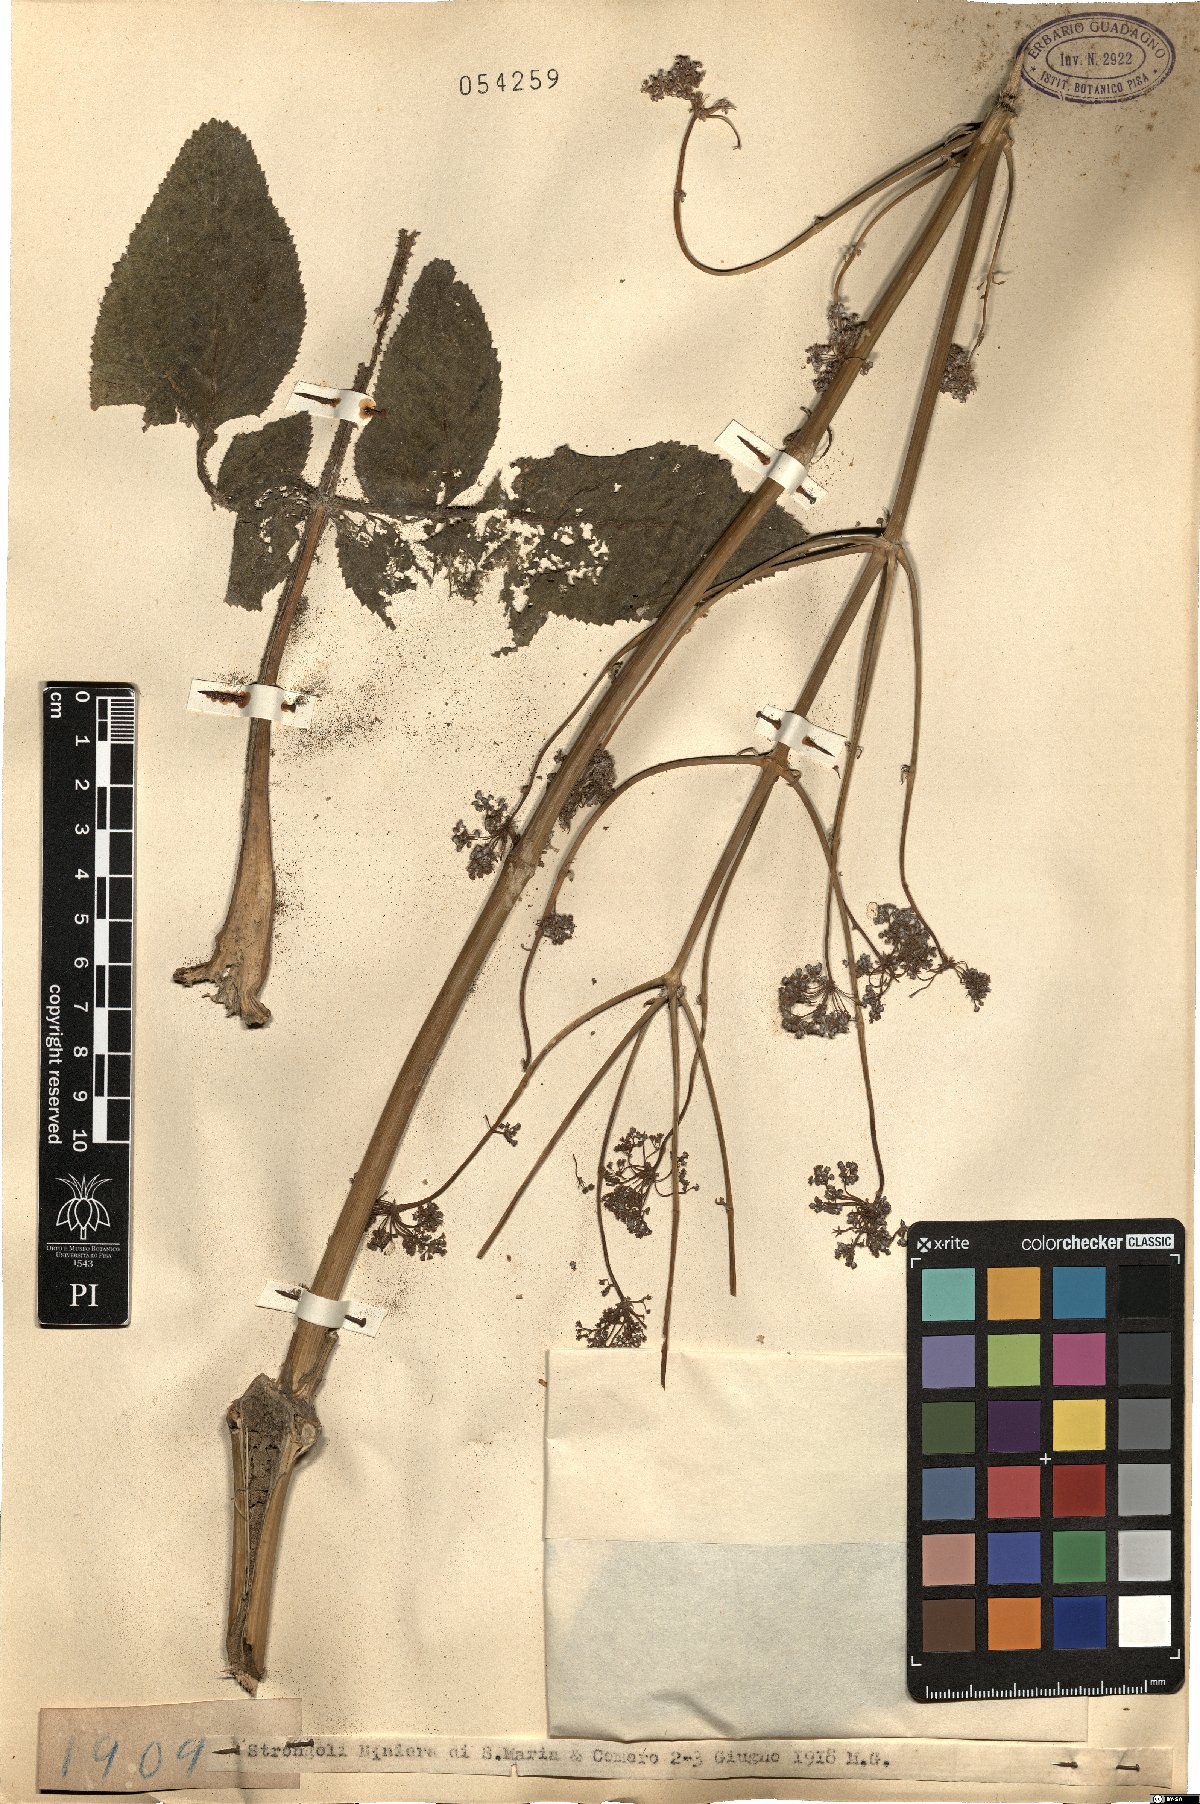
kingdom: Plantae
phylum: Tracheophyta
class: Magnoliopsida
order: Apiales
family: Apiaceae
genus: Opopanax
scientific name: Opopanax
